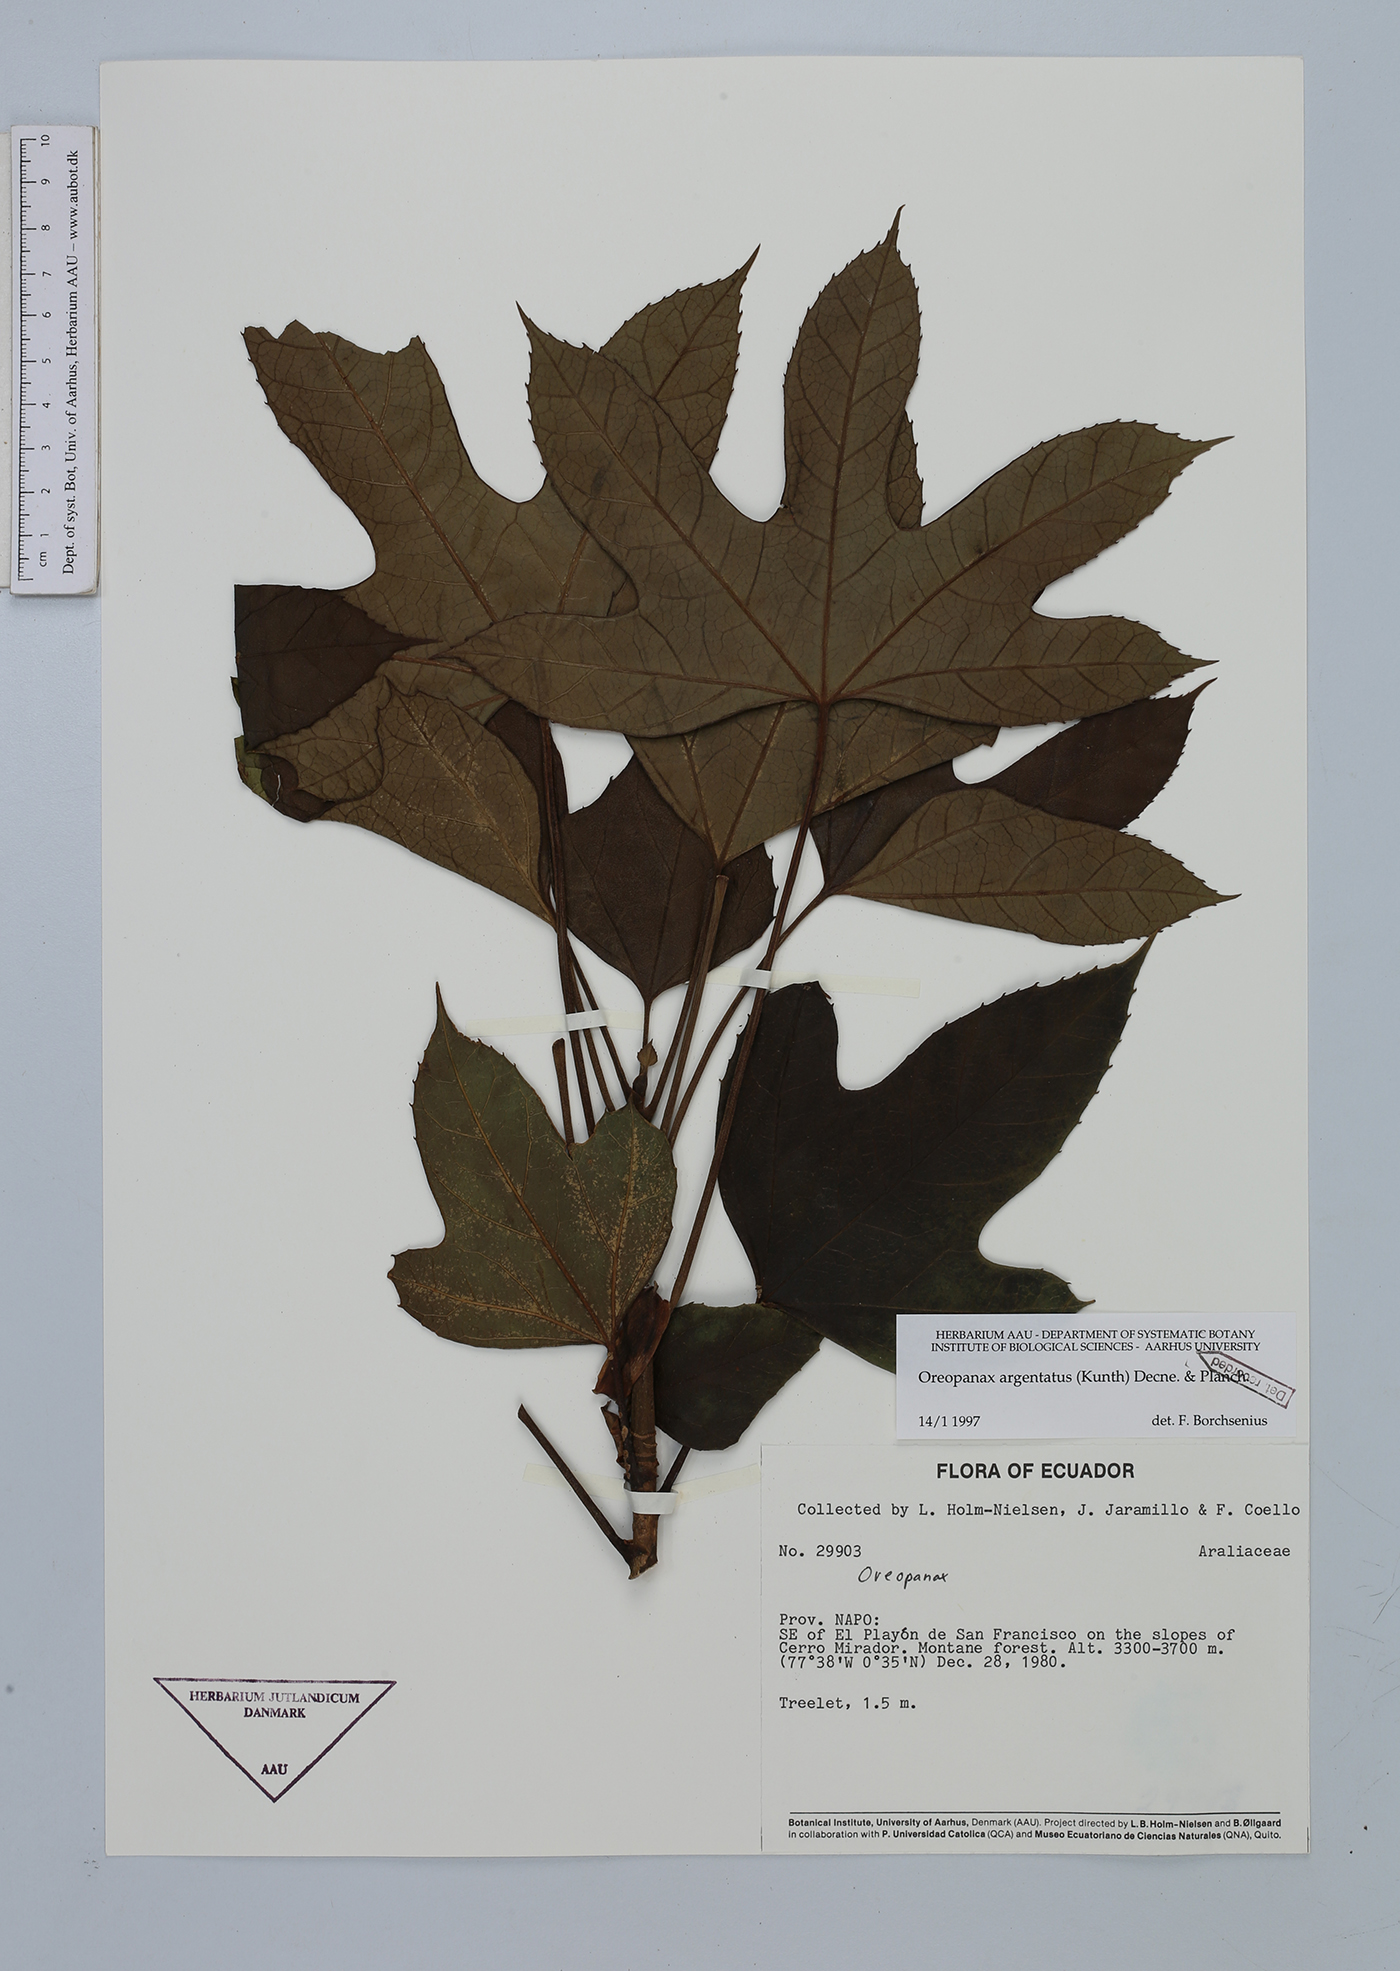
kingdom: Plantae
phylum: Tracheophyta
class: Magnoliopsida
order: Apiales
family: Araliaceae
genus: Oreopanax
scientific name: Oreopanax argentatus
